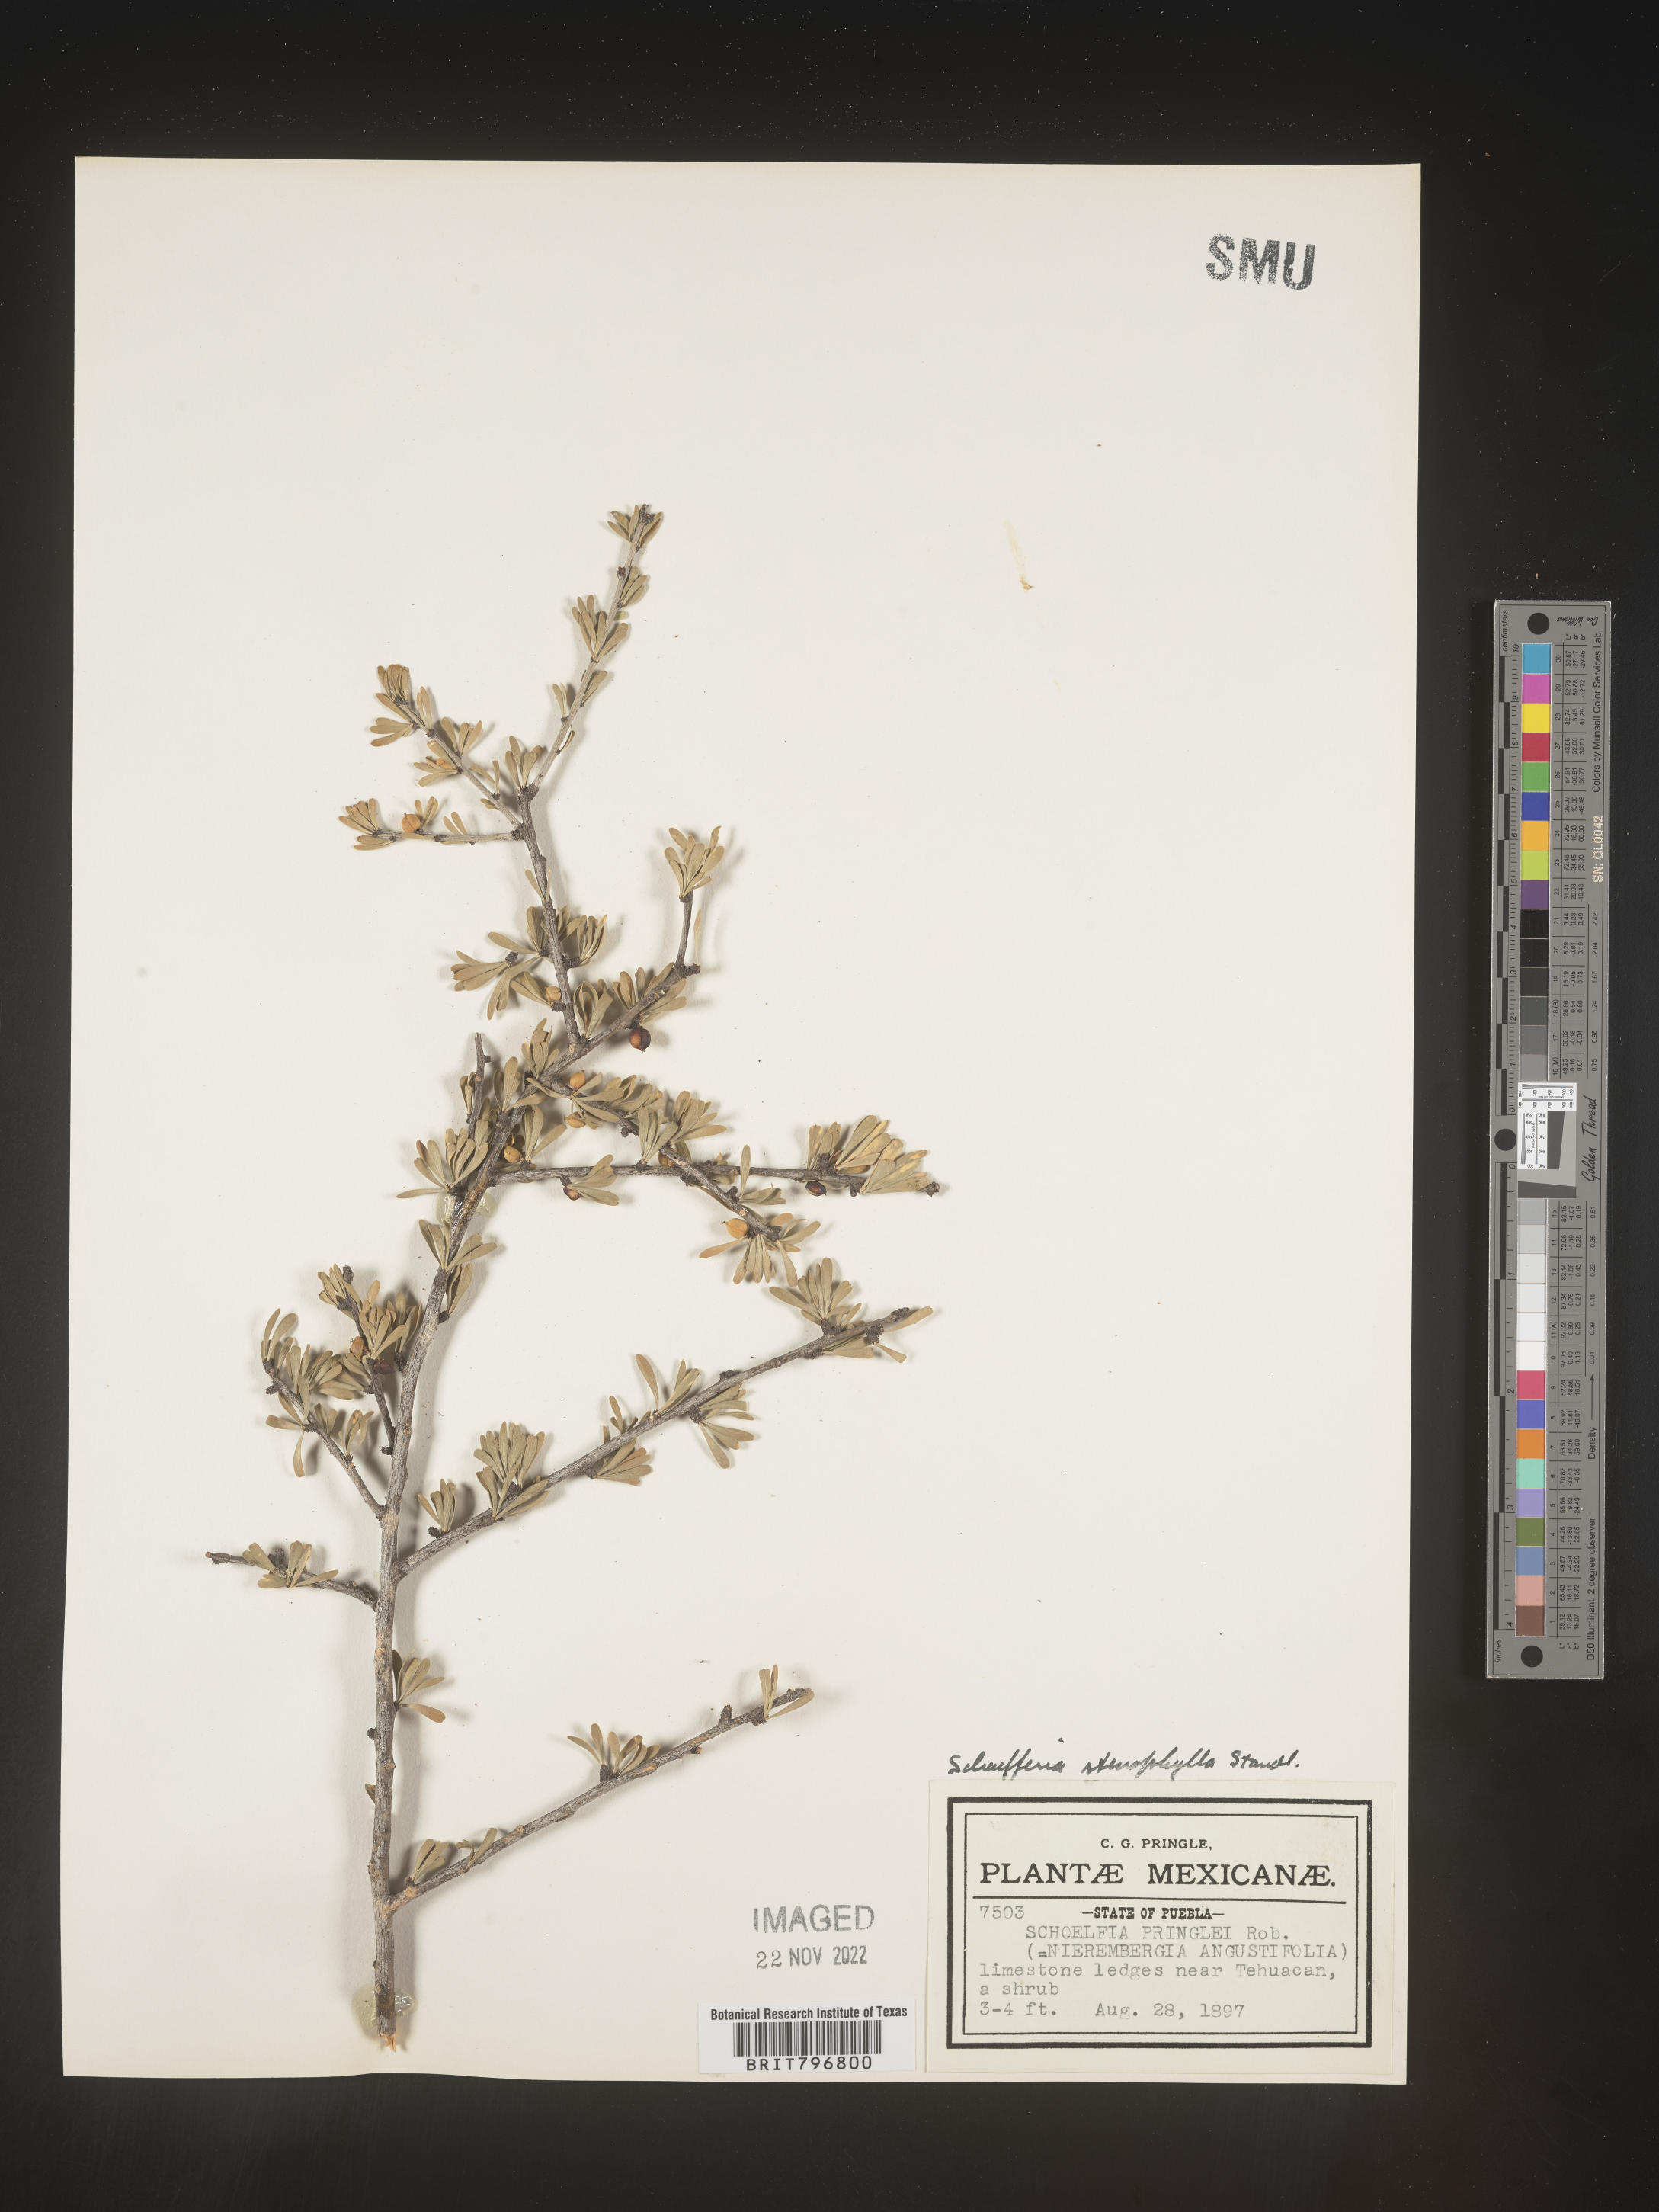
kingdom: Plantae
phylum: Tracheophyta
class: Magnoliopsida
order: Celastrales
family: Celastraceae
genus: Schaefferia
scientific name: Schaefferia
